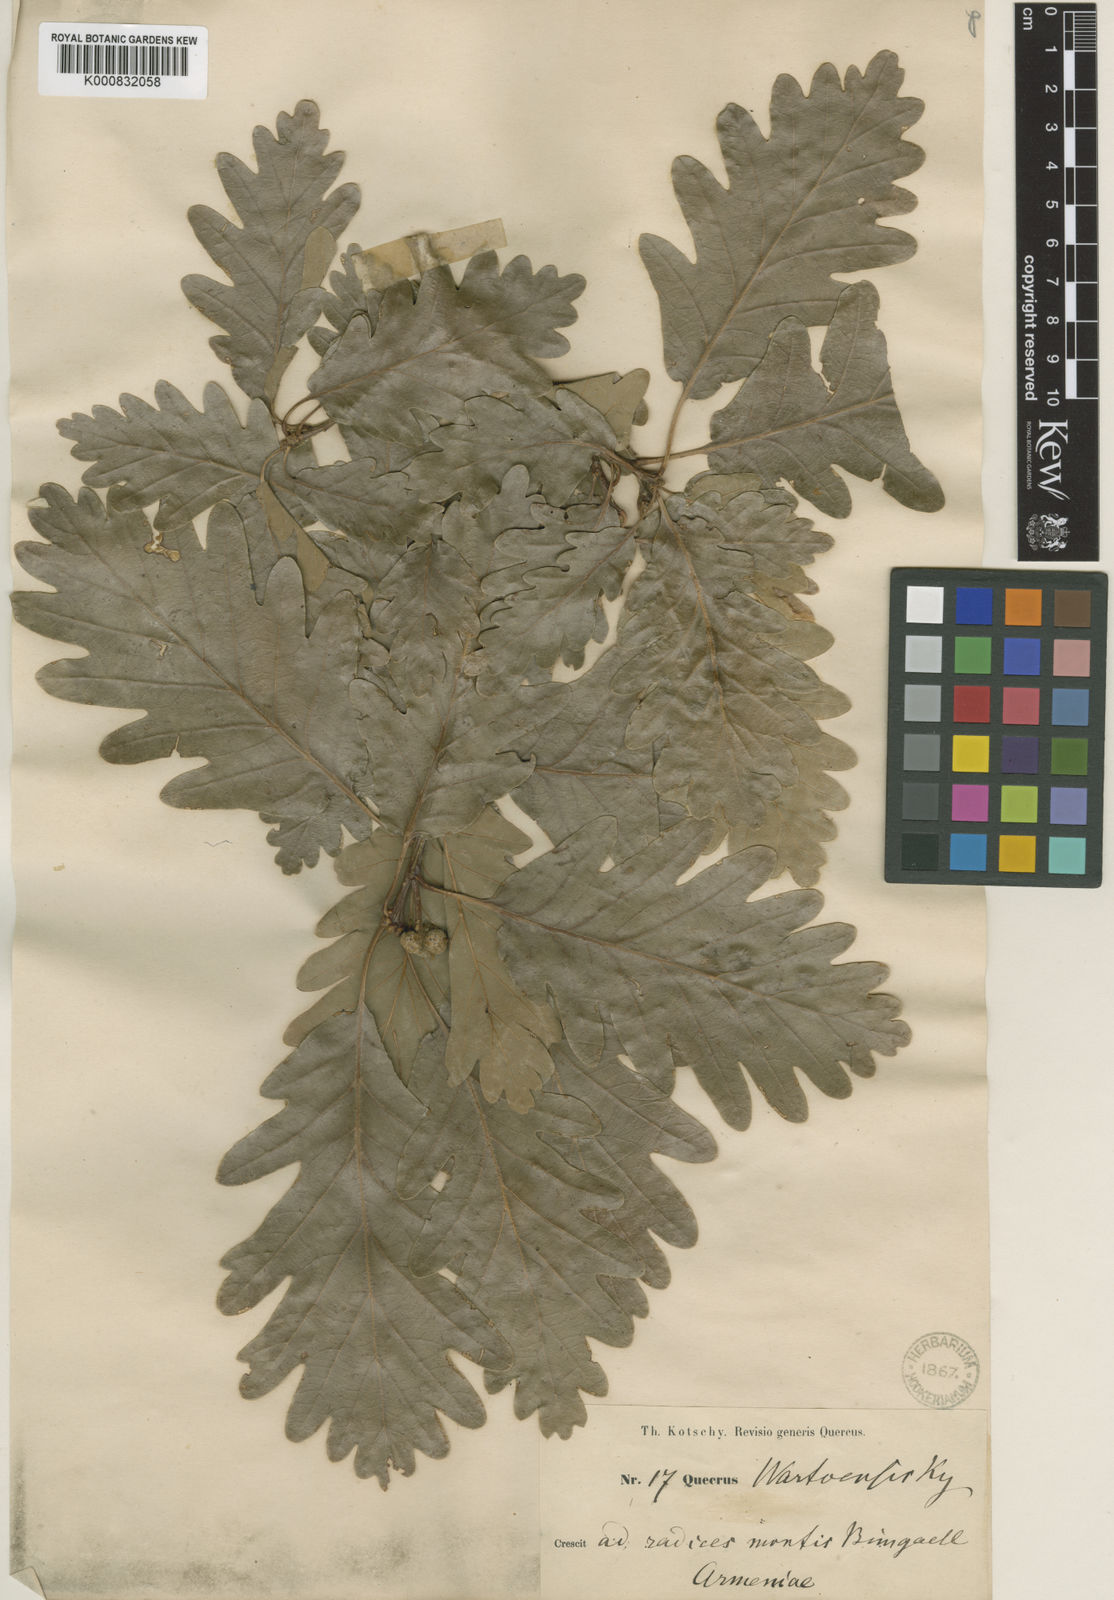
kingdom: Plantae
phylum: Tracheophyta
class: Magnoliopsida
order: Fagales
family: Fagaceae
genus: Quercus
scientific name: Quercus
